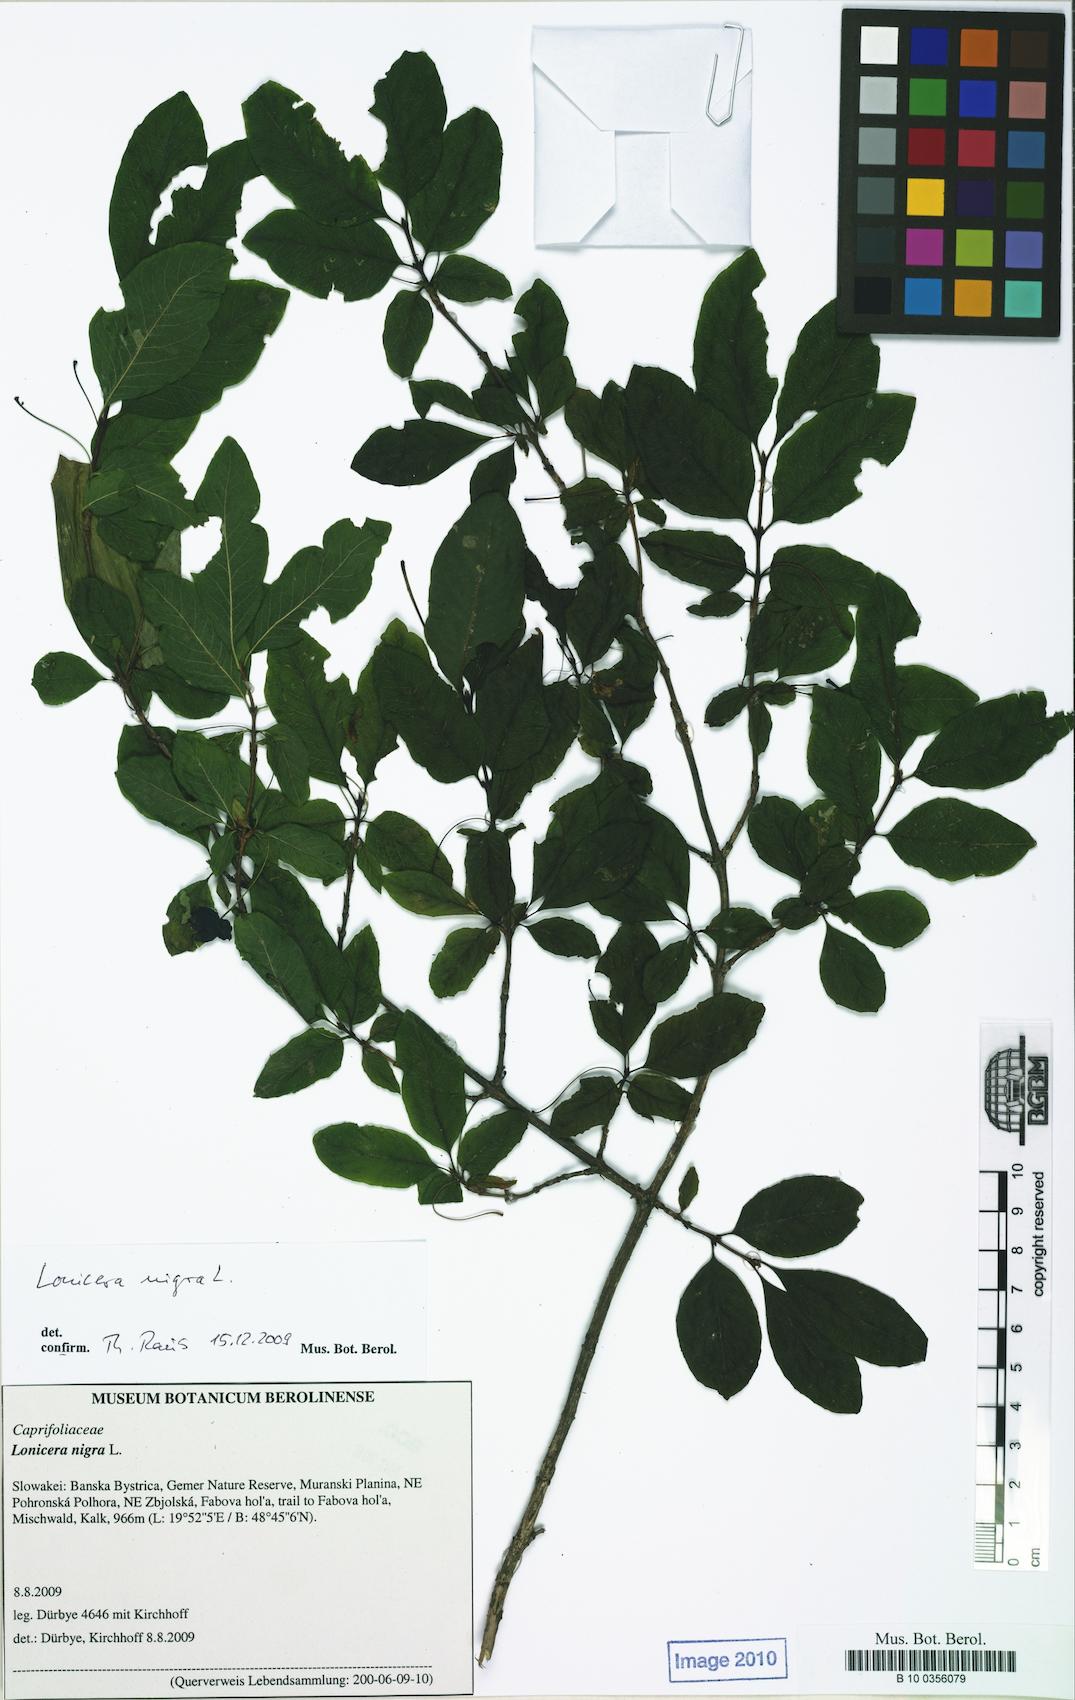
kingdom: Plantae
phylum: Tracheophyta
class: Magnoliopsida
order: Dipsacales
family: Caprifoliaceae
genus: Lonicera
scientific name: Lonicera nigra
